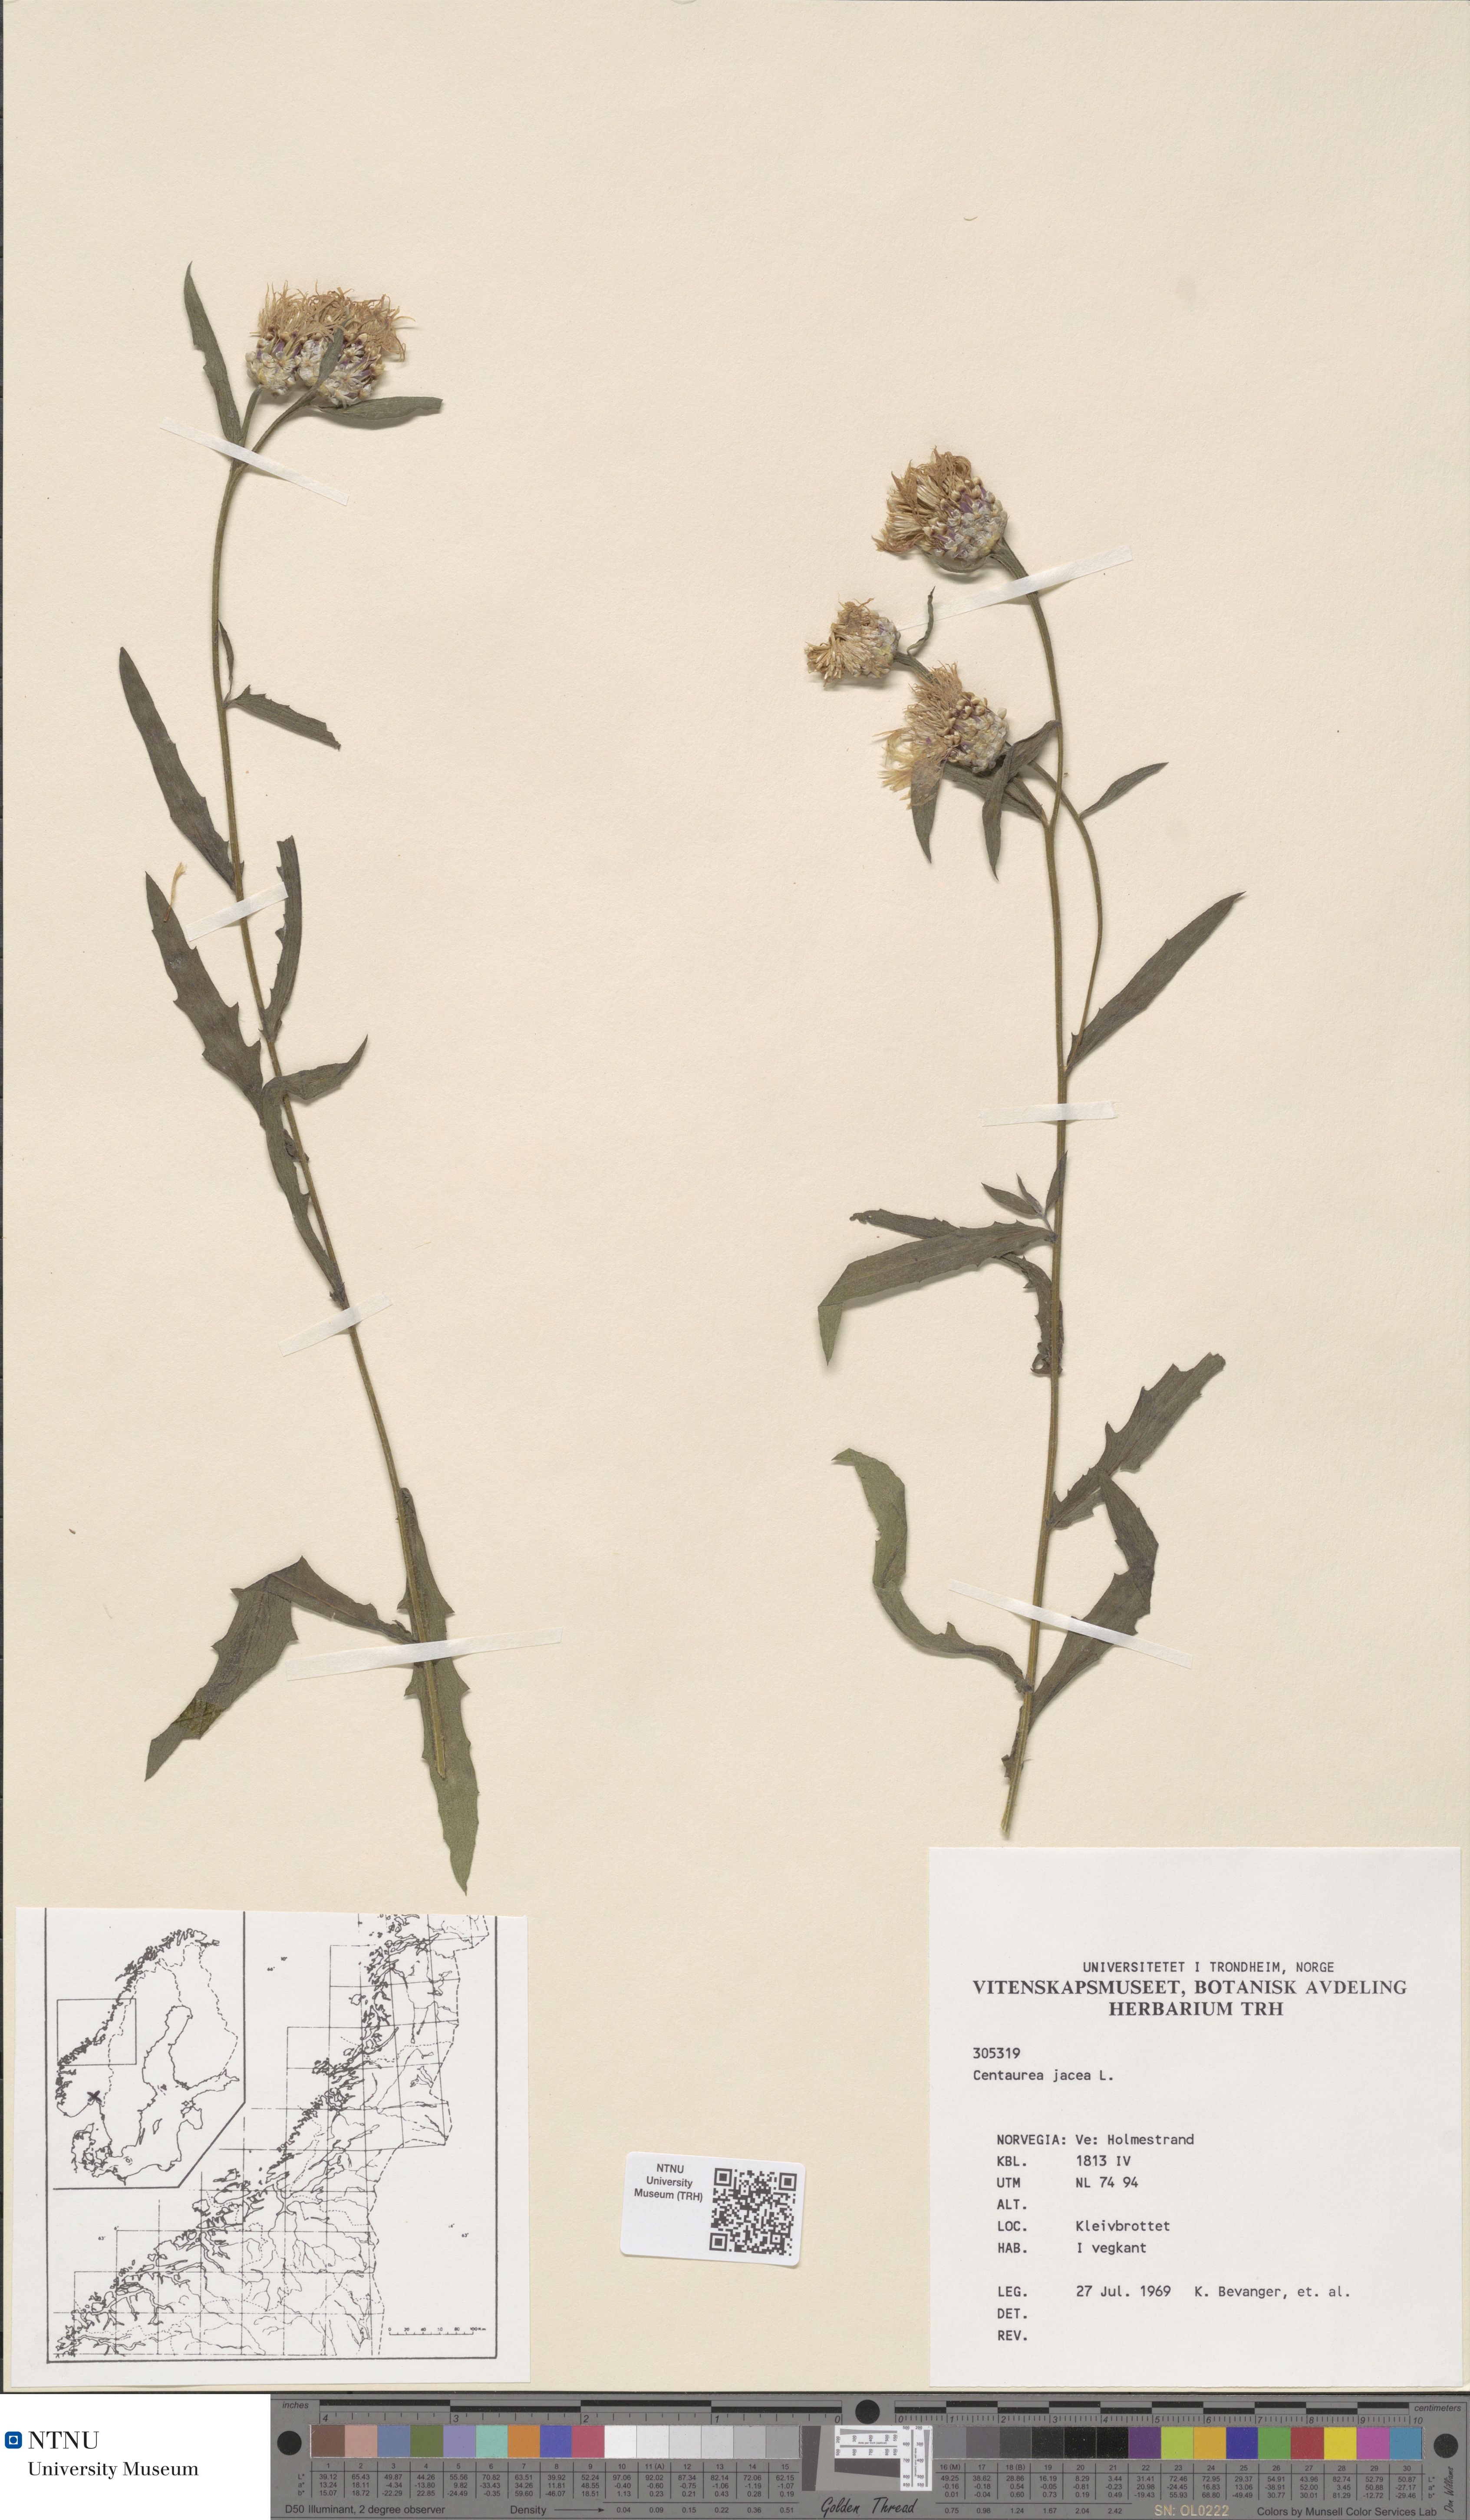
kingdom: Plantae
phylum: Tracheophyta
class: Magnoliopsida
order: Asterales
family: Asteraceae
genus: Centaurea
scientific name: Centaurea jacea
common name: Brown knapweed
